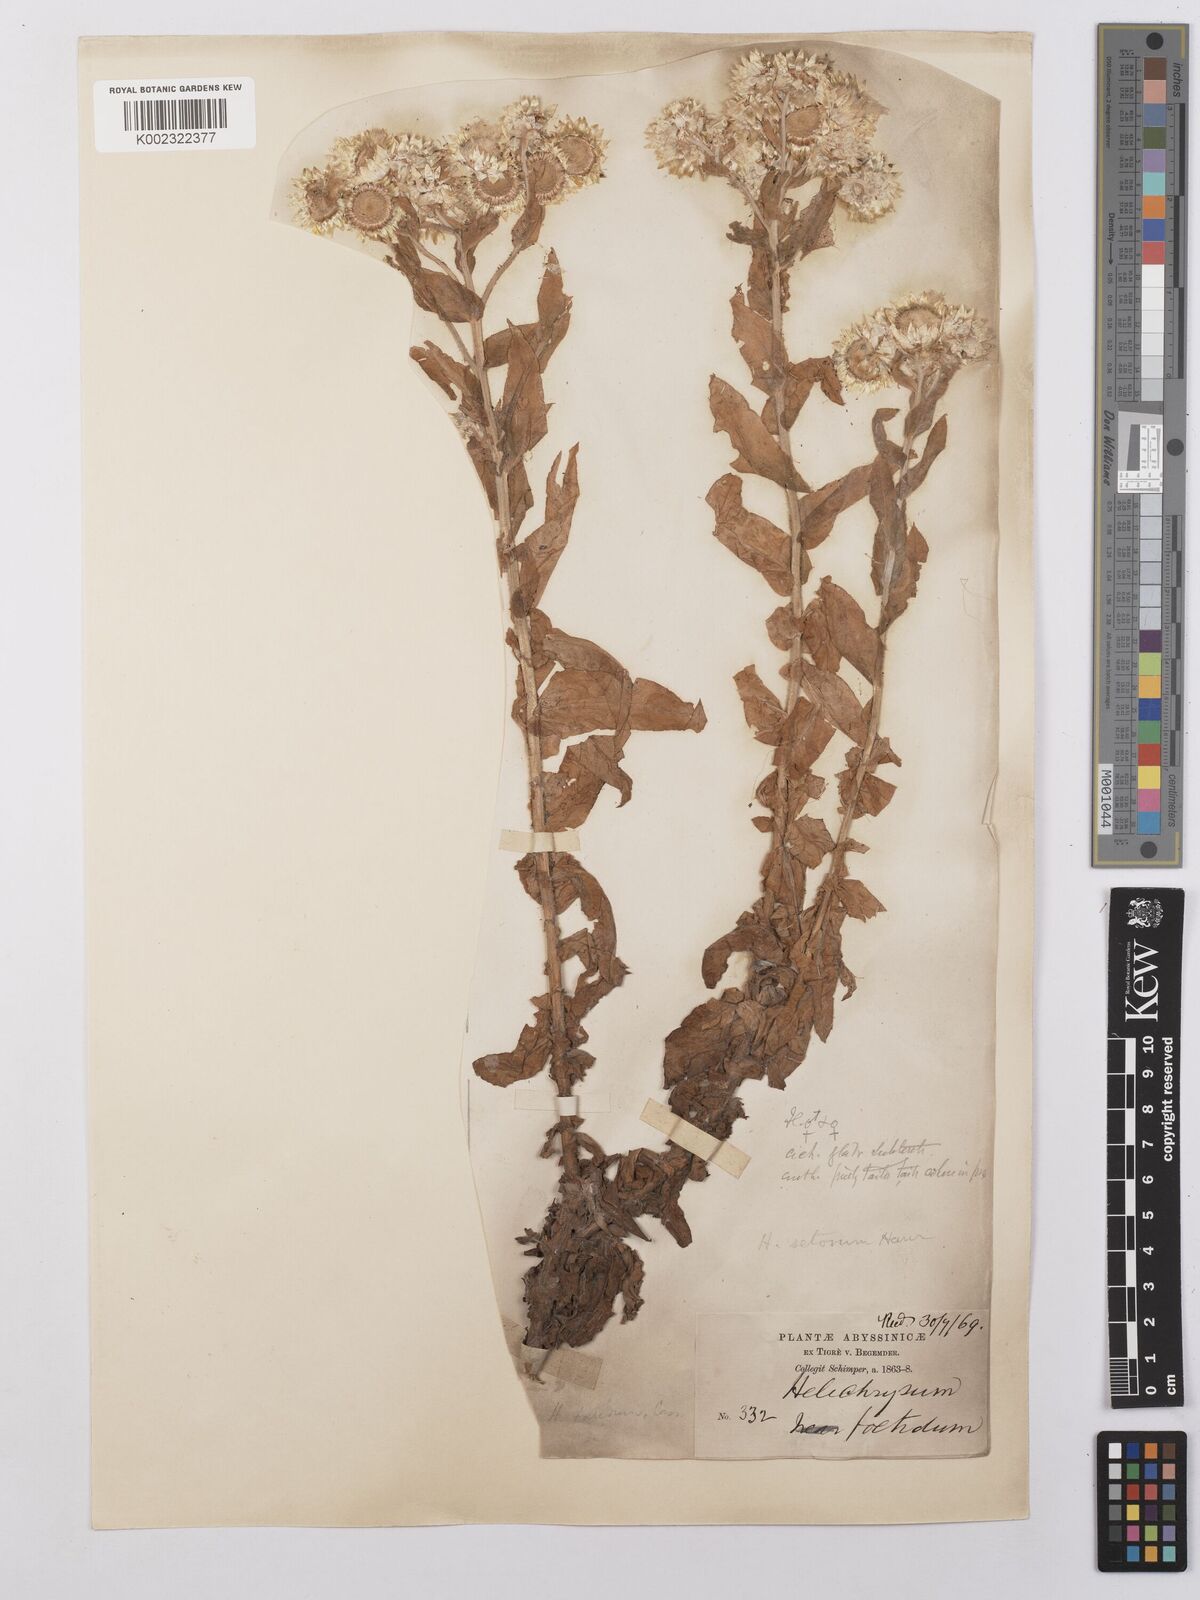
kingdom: Plantae
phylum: Tracheophyta
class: Magnoliopsida
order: Asterales
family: Asteraceae
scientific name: Asteraceae
